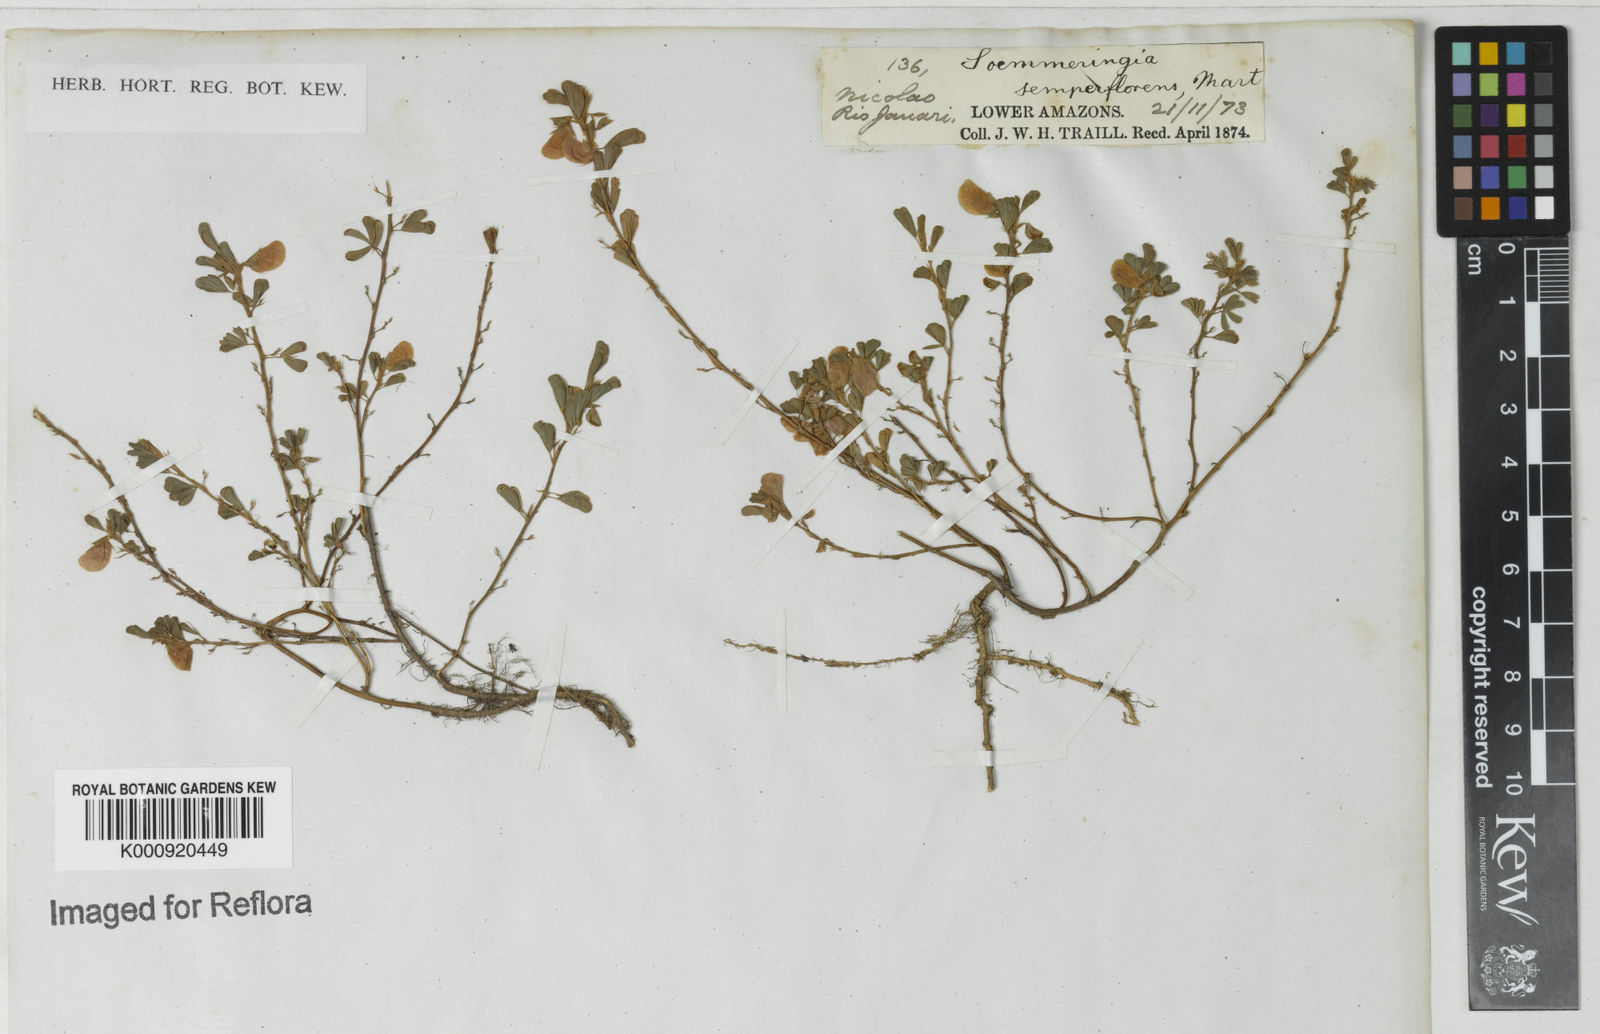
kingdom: Plantae
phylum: Tracheophyta
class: Magnoliopsida
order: Fabales
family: Fabaceae
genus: Soemmeringia
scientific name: Soemmeringia
